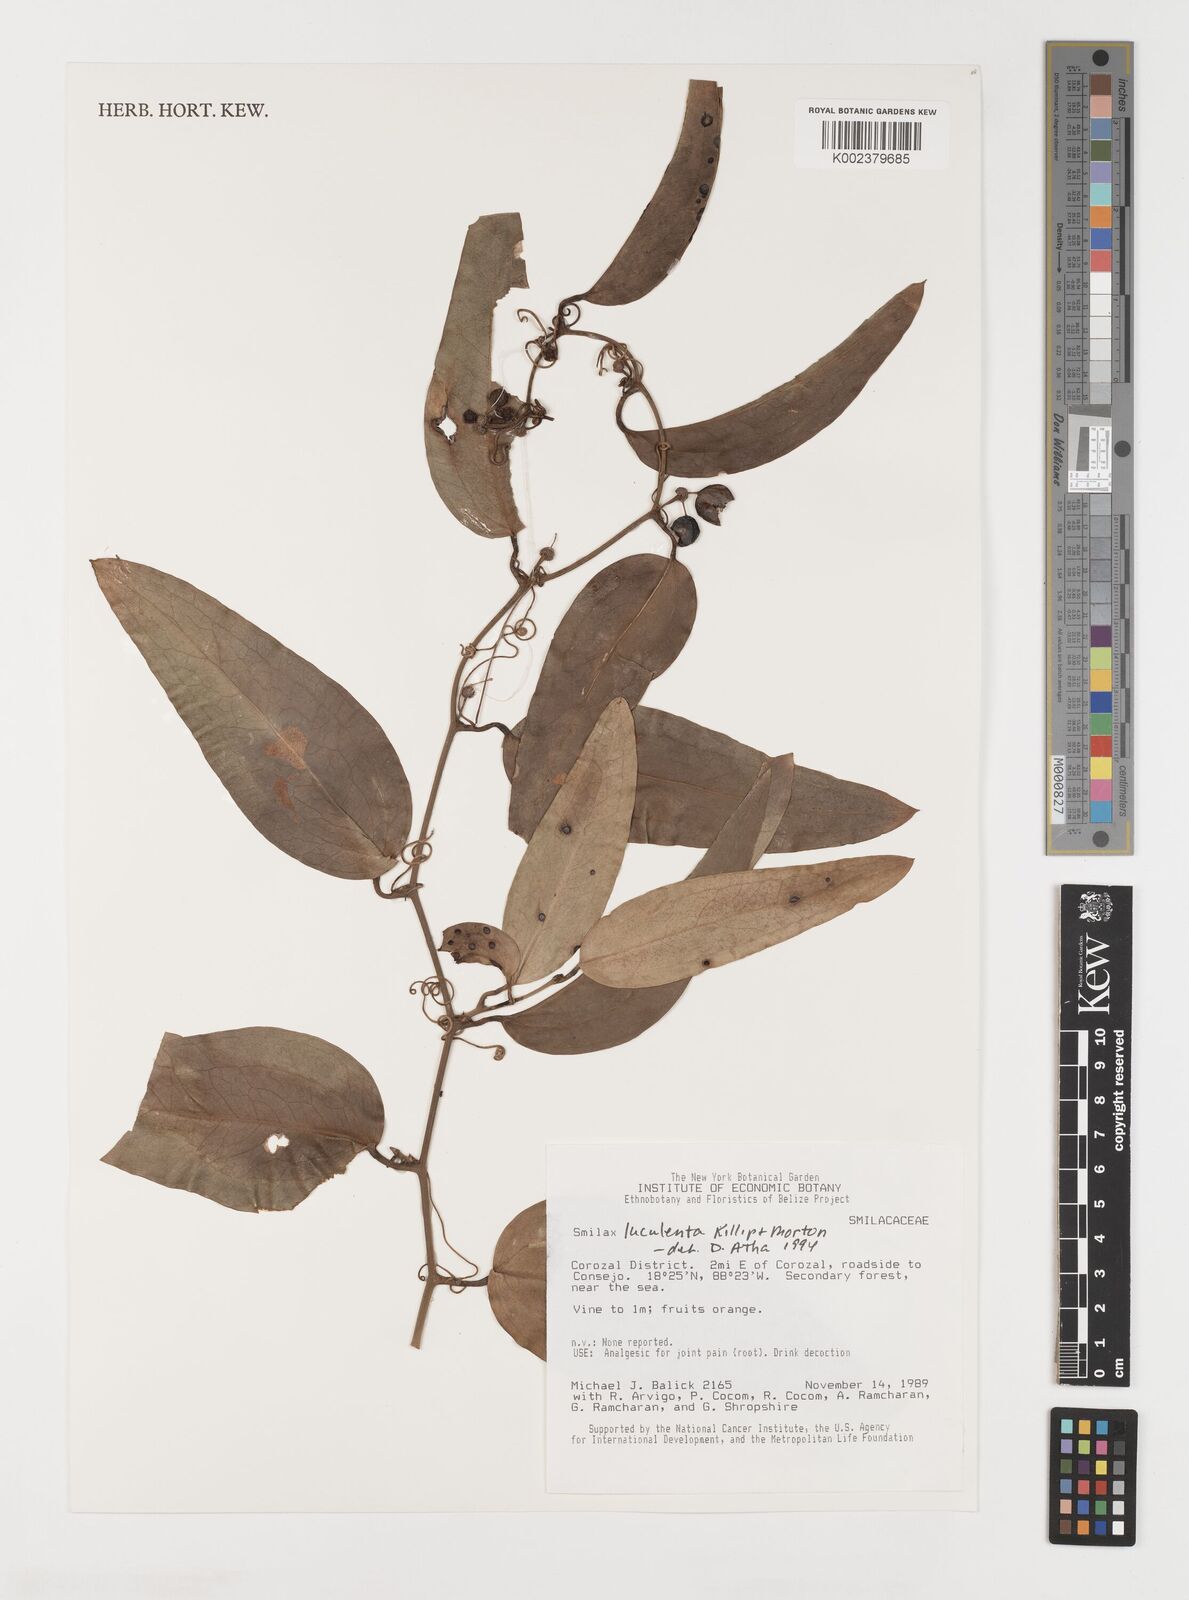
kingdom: Plantae
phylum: Tracheophyta
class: Liliopsida
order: Liliales
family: Smilacaceae
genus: Smilax
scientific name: Smilax spinosa
